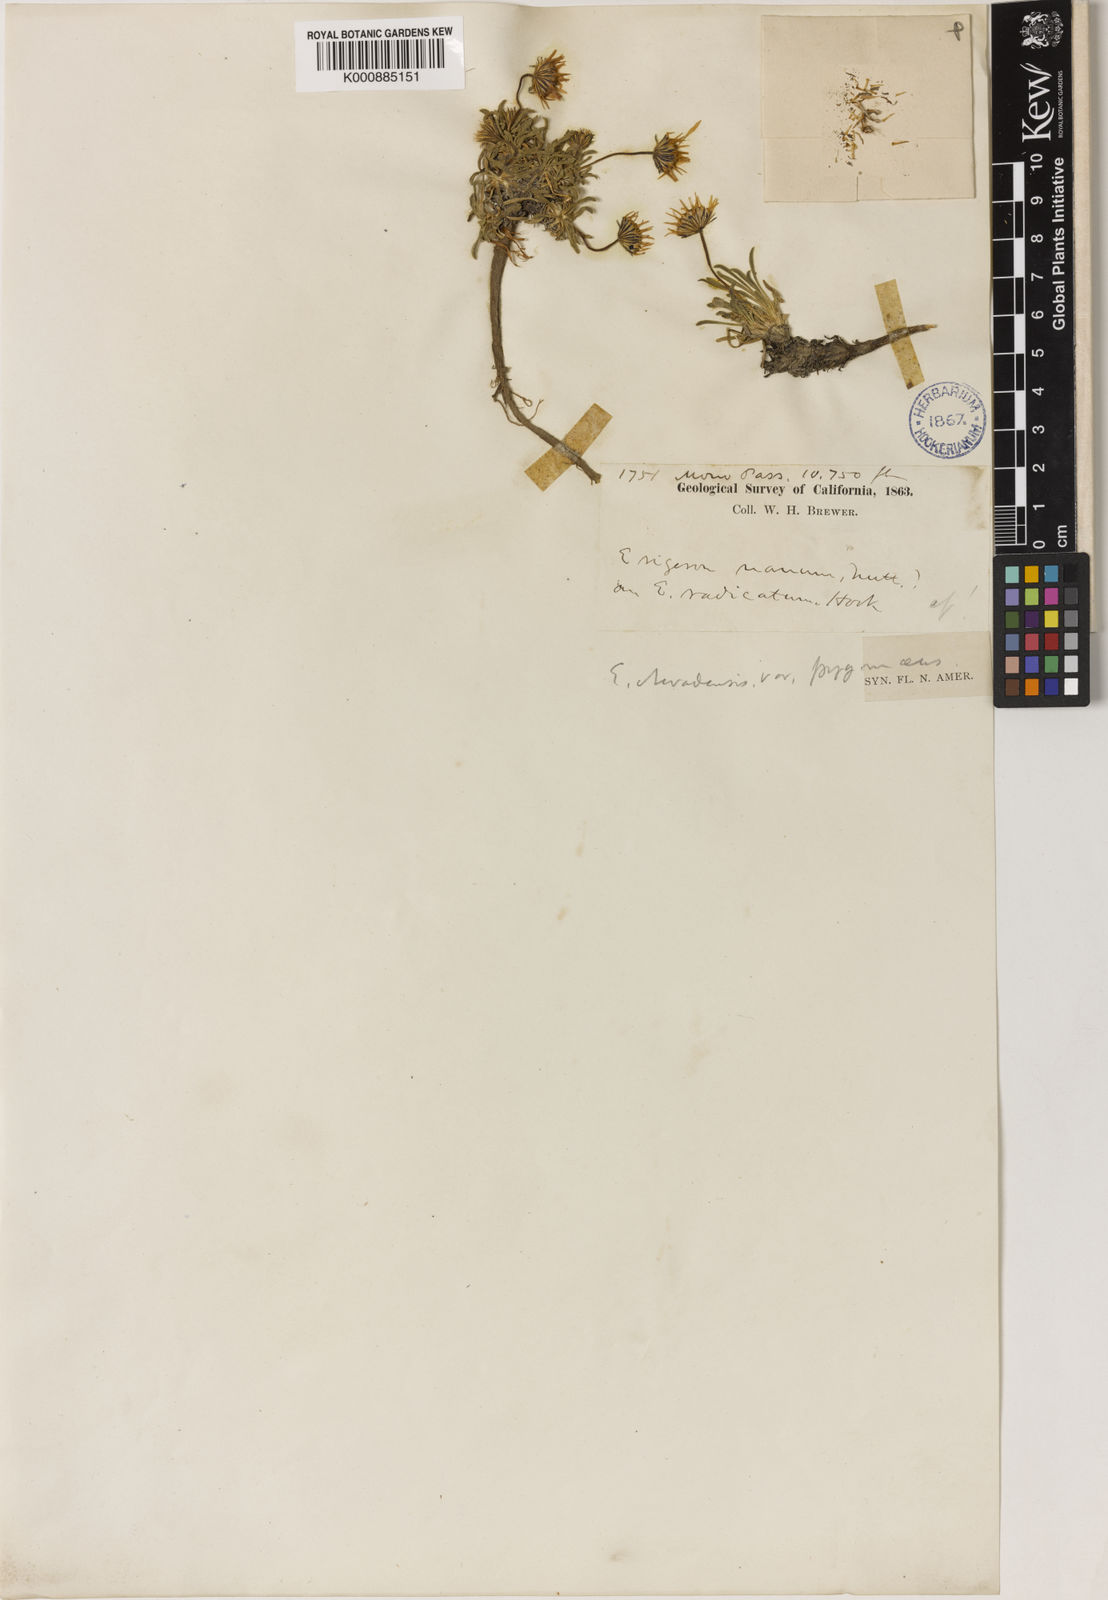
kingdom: Plantae
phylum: Tracheophyta
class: Magnoliopsida
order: Asterales
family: Asteraceae
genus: Oritrophium
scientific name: Oritrophium nevadense
